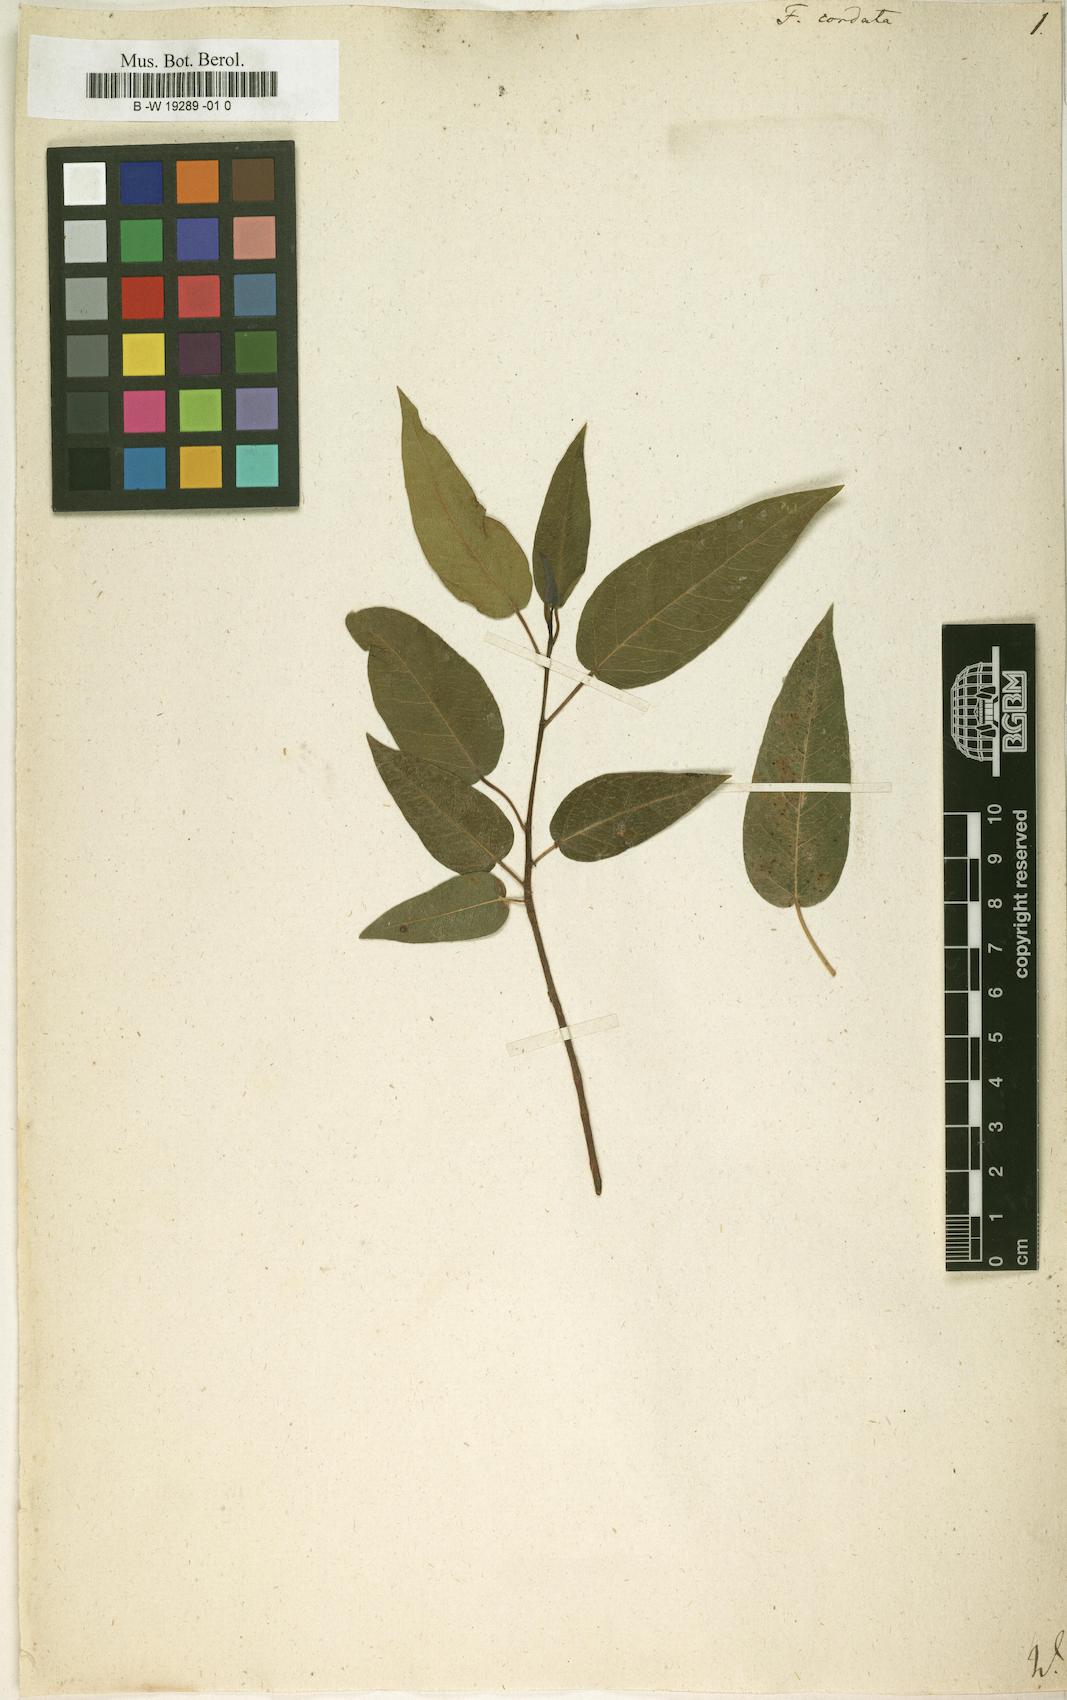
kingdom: Plantae
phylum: Tracheophyta
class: Magnoliopsida
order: Rosales
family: Moraceae
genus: Ficus
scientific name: Ficus cordata
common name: Namaqua rock fig
